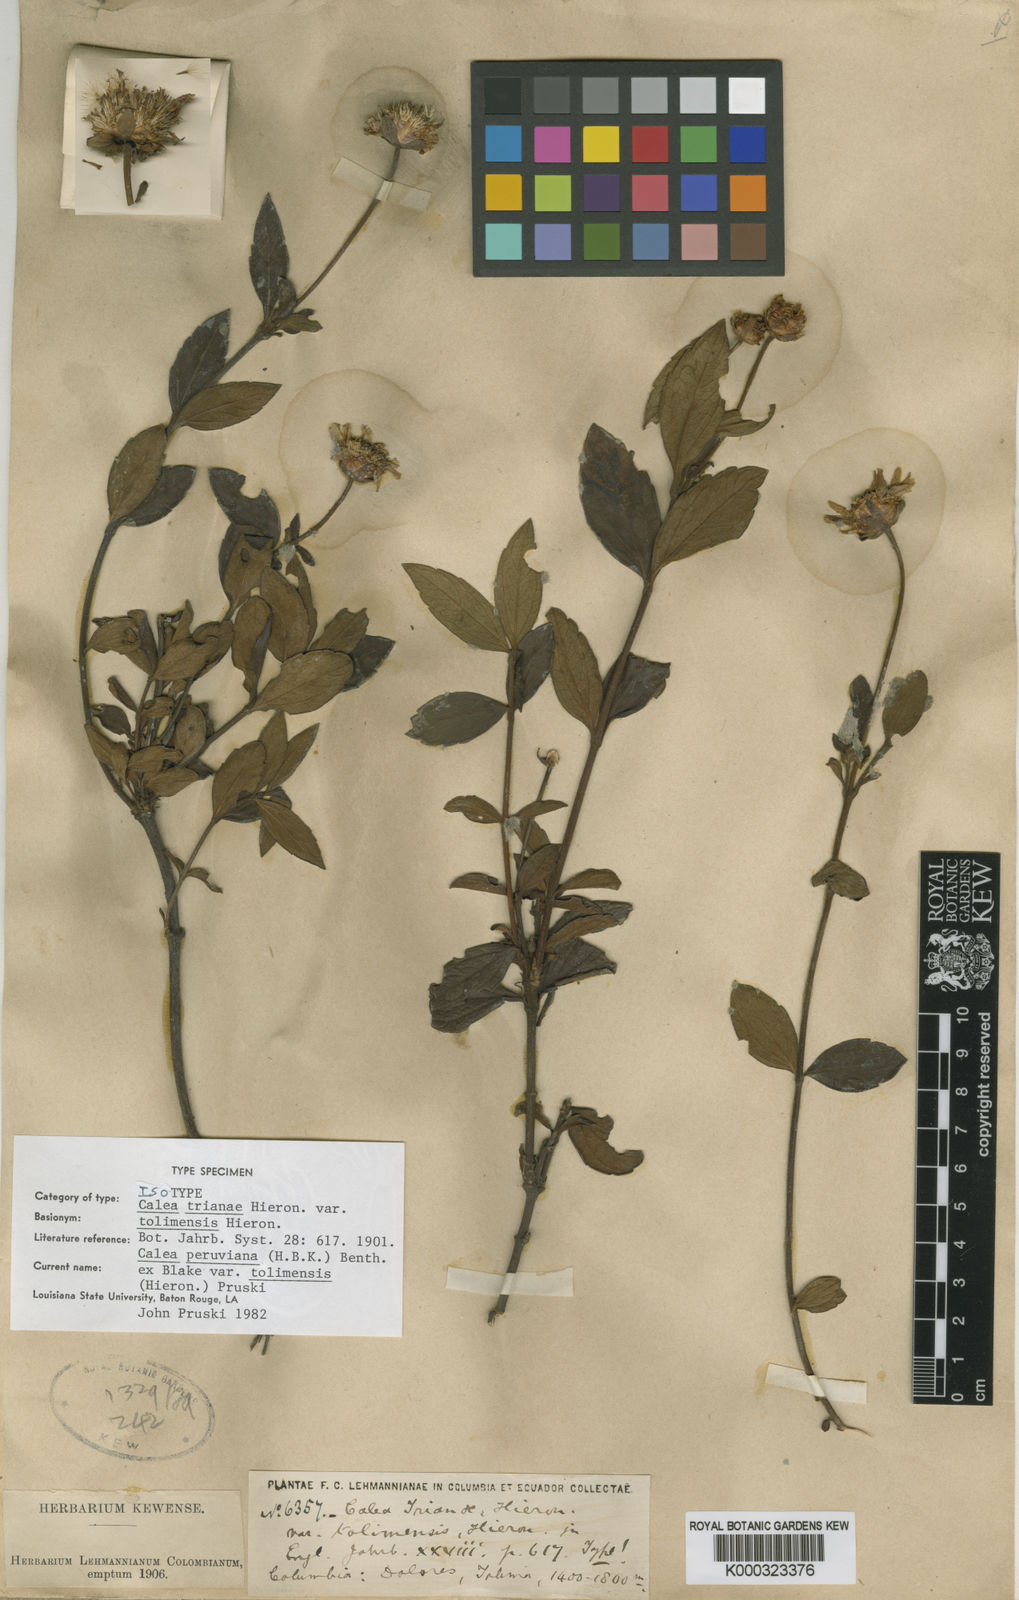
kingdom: Plantae
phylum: Tracheophyta
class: Magnoliopsida
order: Asterales
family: Asteraceae
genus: Calea
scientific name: Calea peruviana
